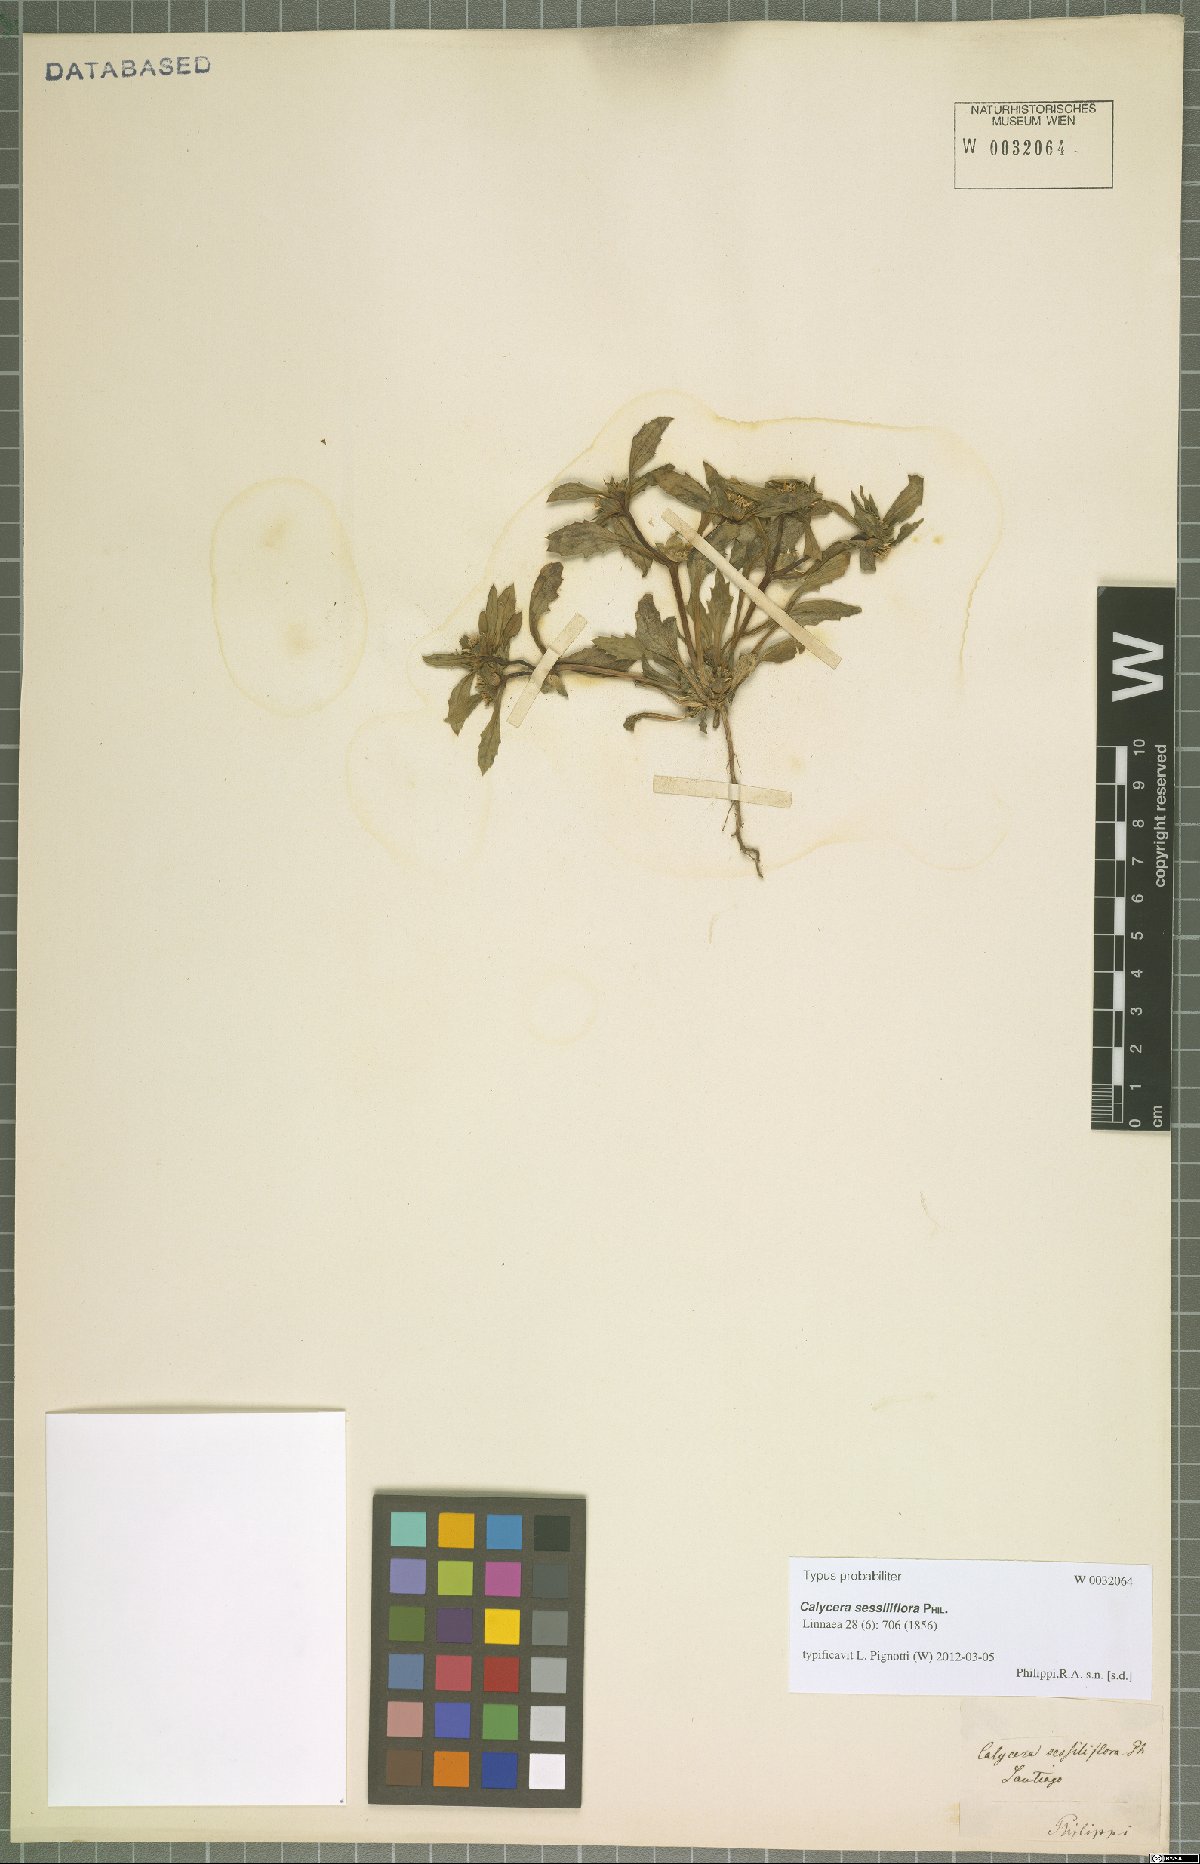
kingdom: Plantae
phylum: Tracheophyta
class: Magnoliopsida
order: Asterales
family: Calyceraceae
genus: Leucocera
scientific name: Leucocera sessiliflora
